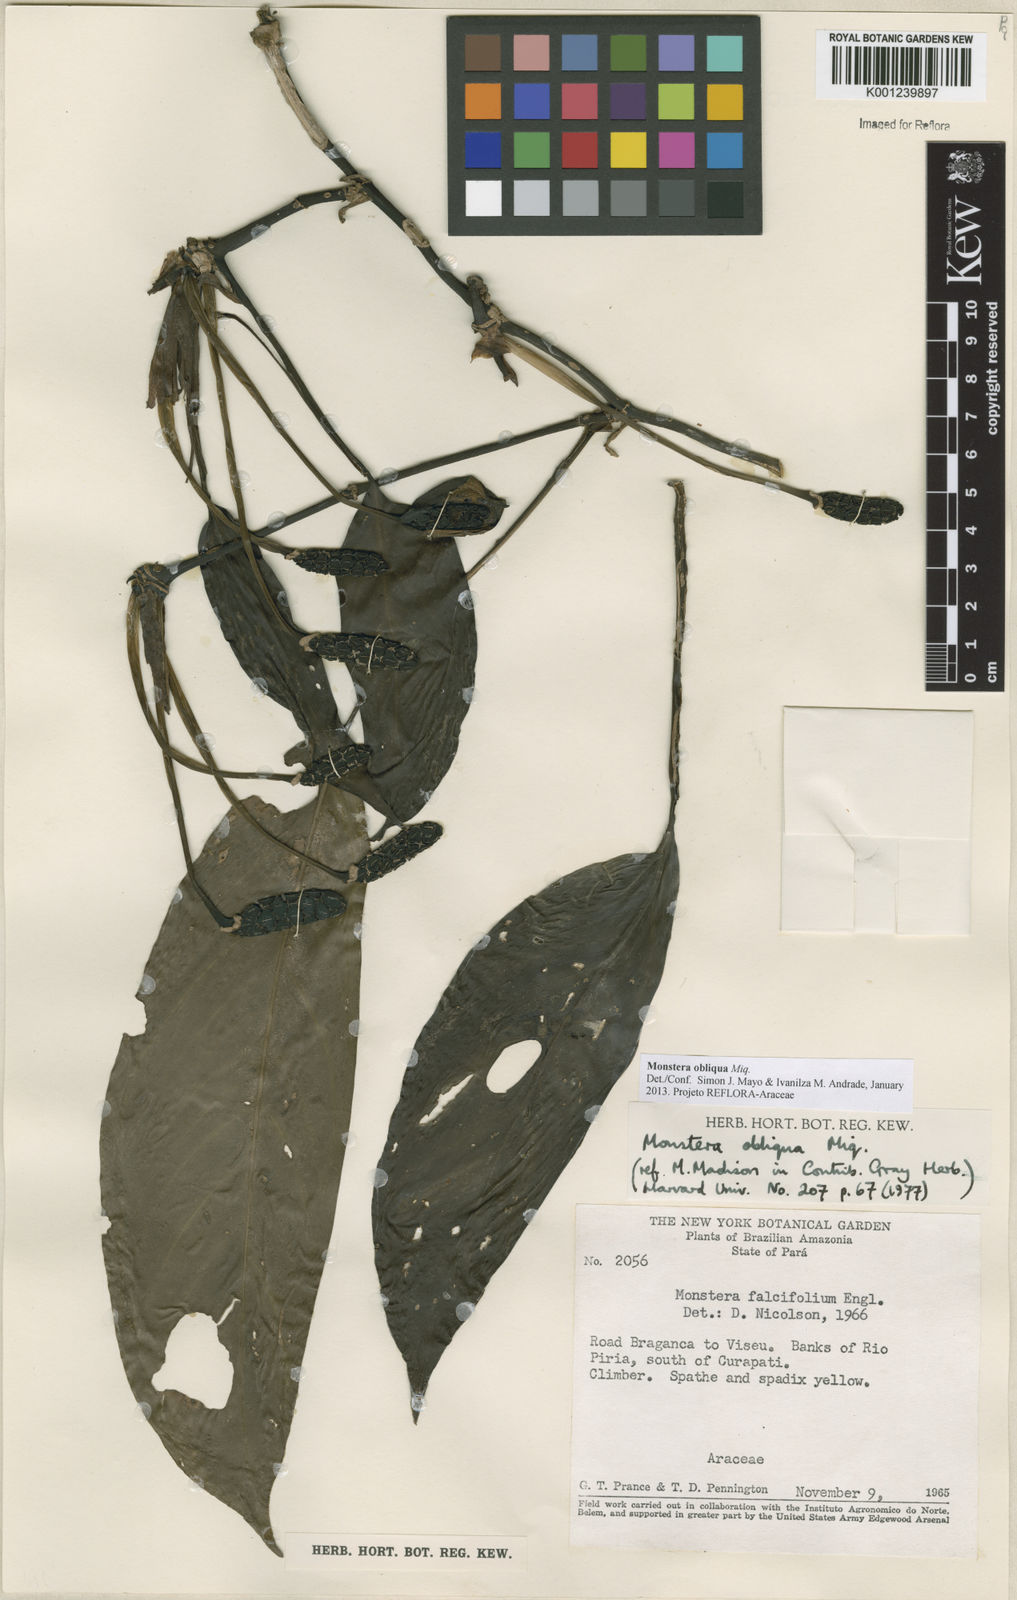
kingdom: Plantae
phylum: Tracheophyta
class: Liliopsida
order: Alismatales
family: Araceae
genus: Monstera
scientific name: Monstera obliqua
